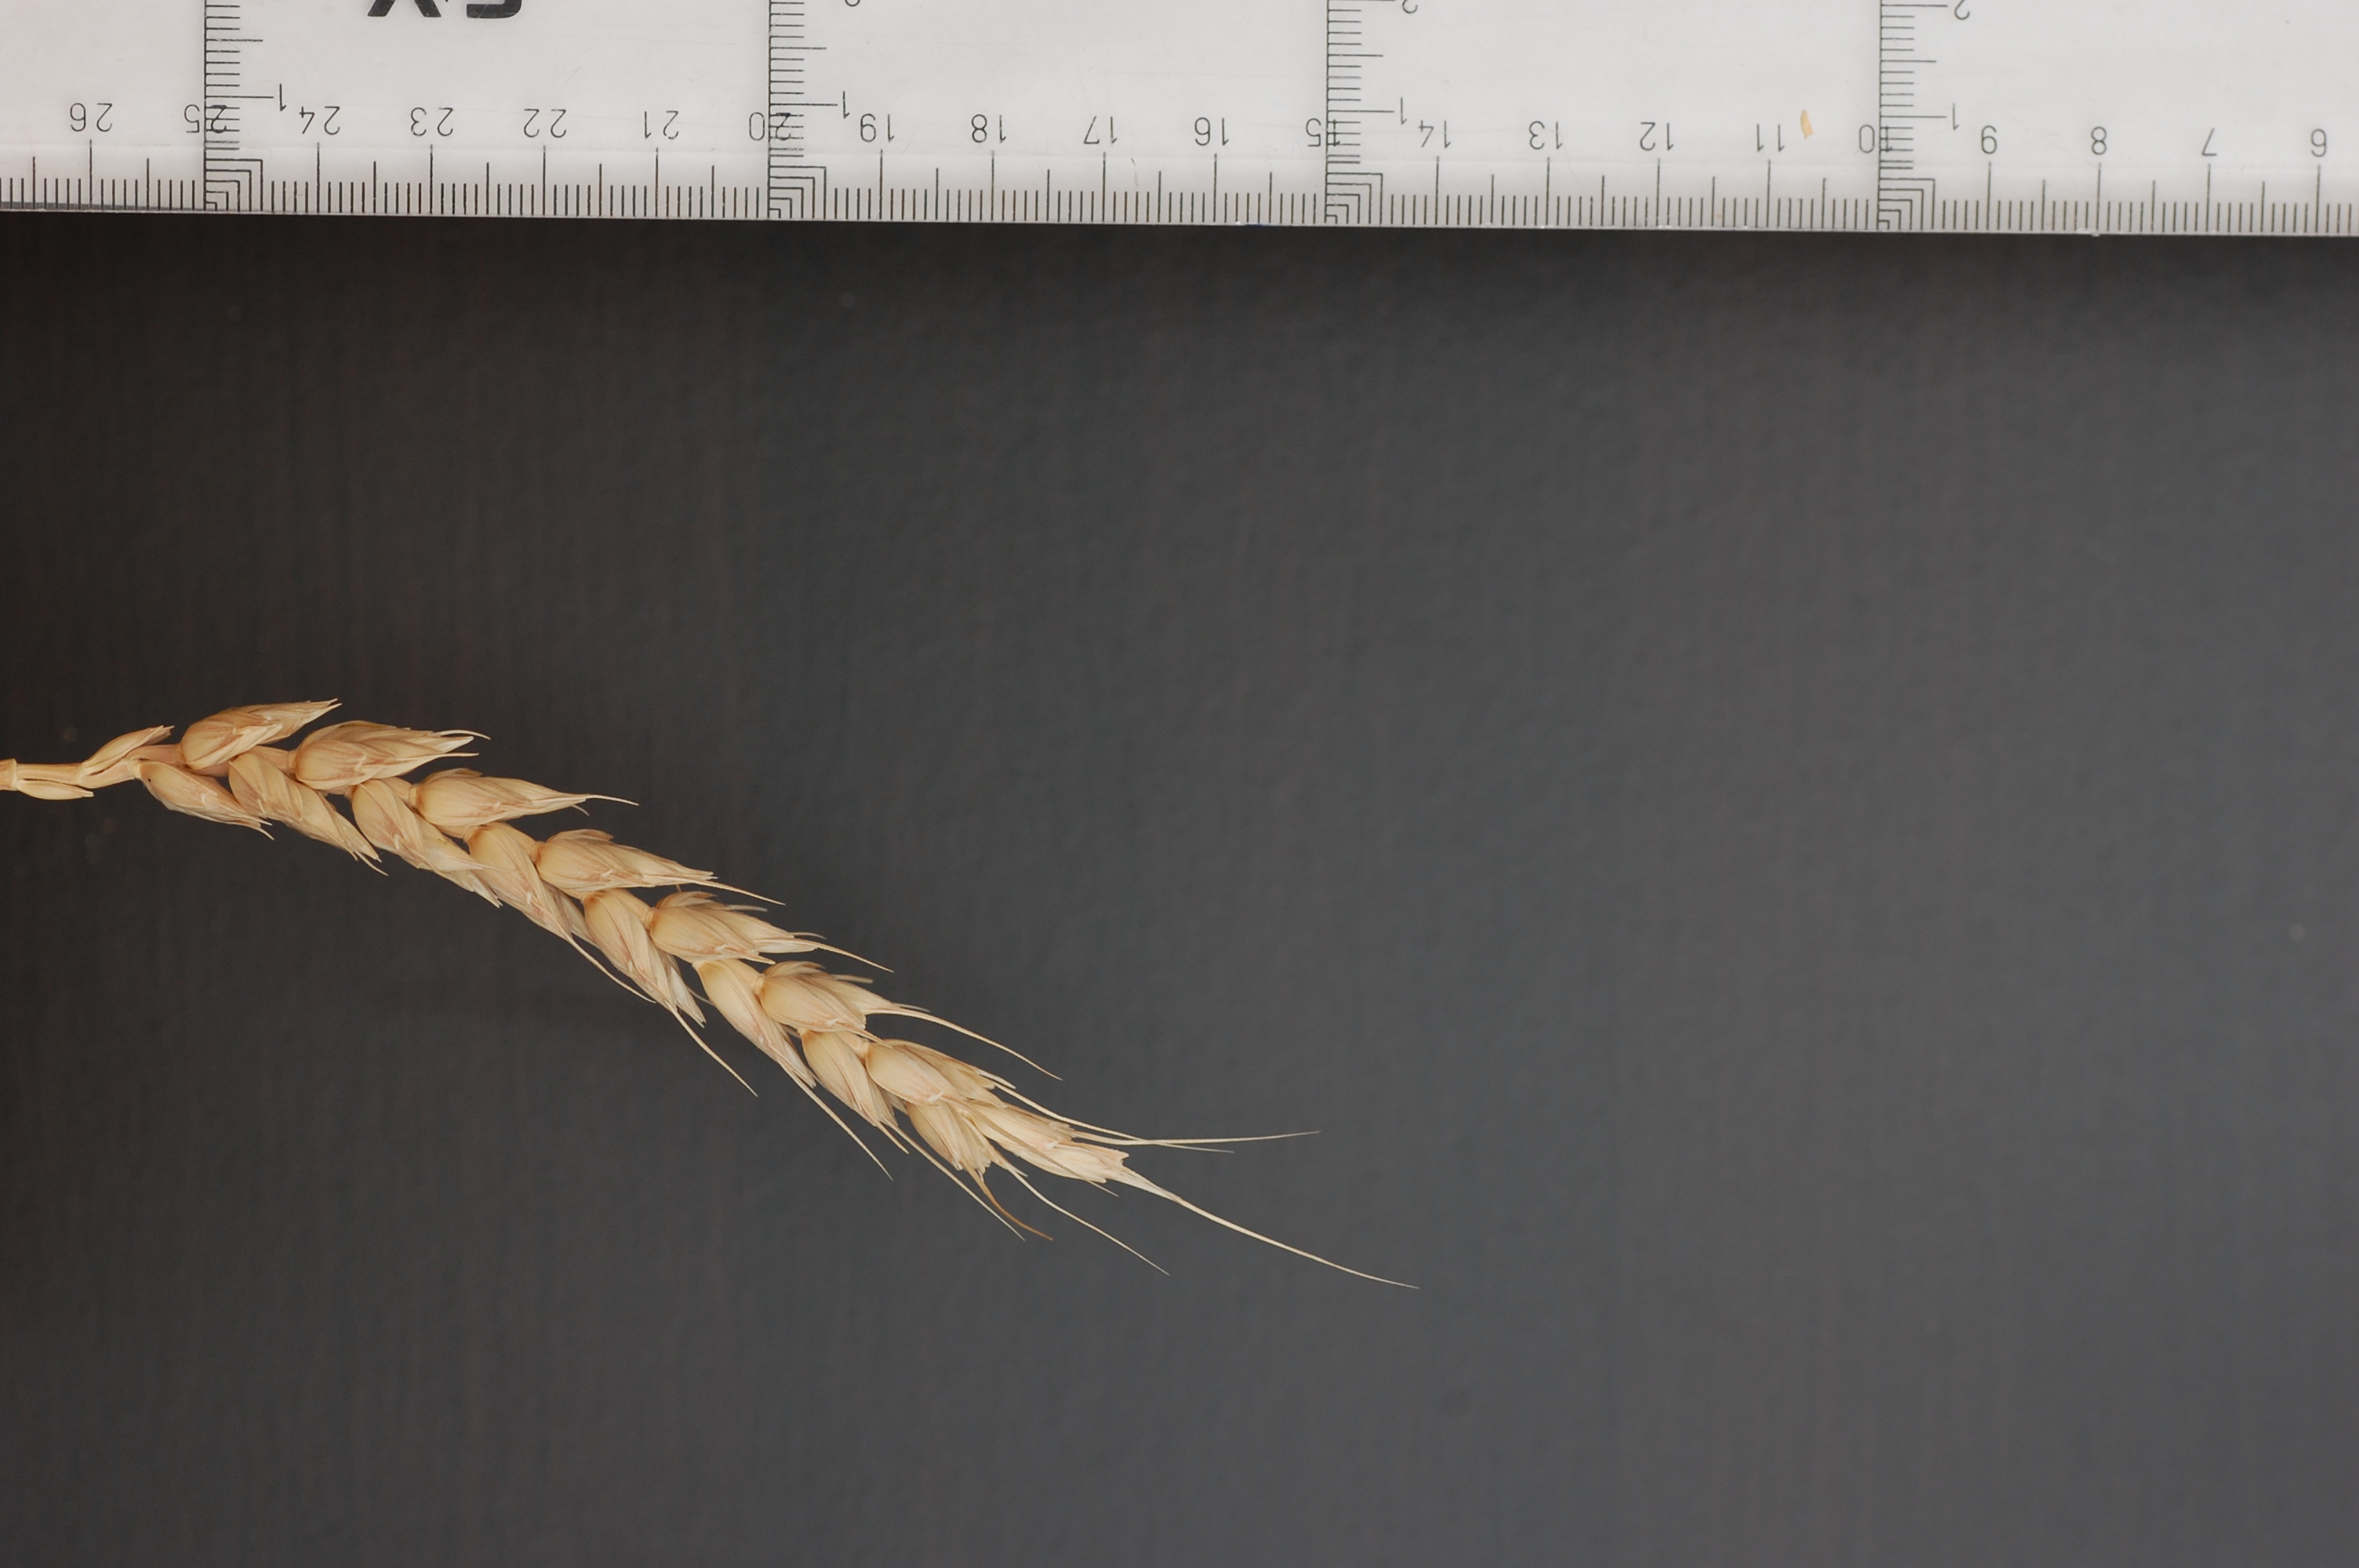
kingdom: Plantae
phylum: Tracheophyta
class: Liliopsida
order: Poales
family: Poaceae
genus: Triticum
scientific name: Triticum aestivum
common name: Common wheat
